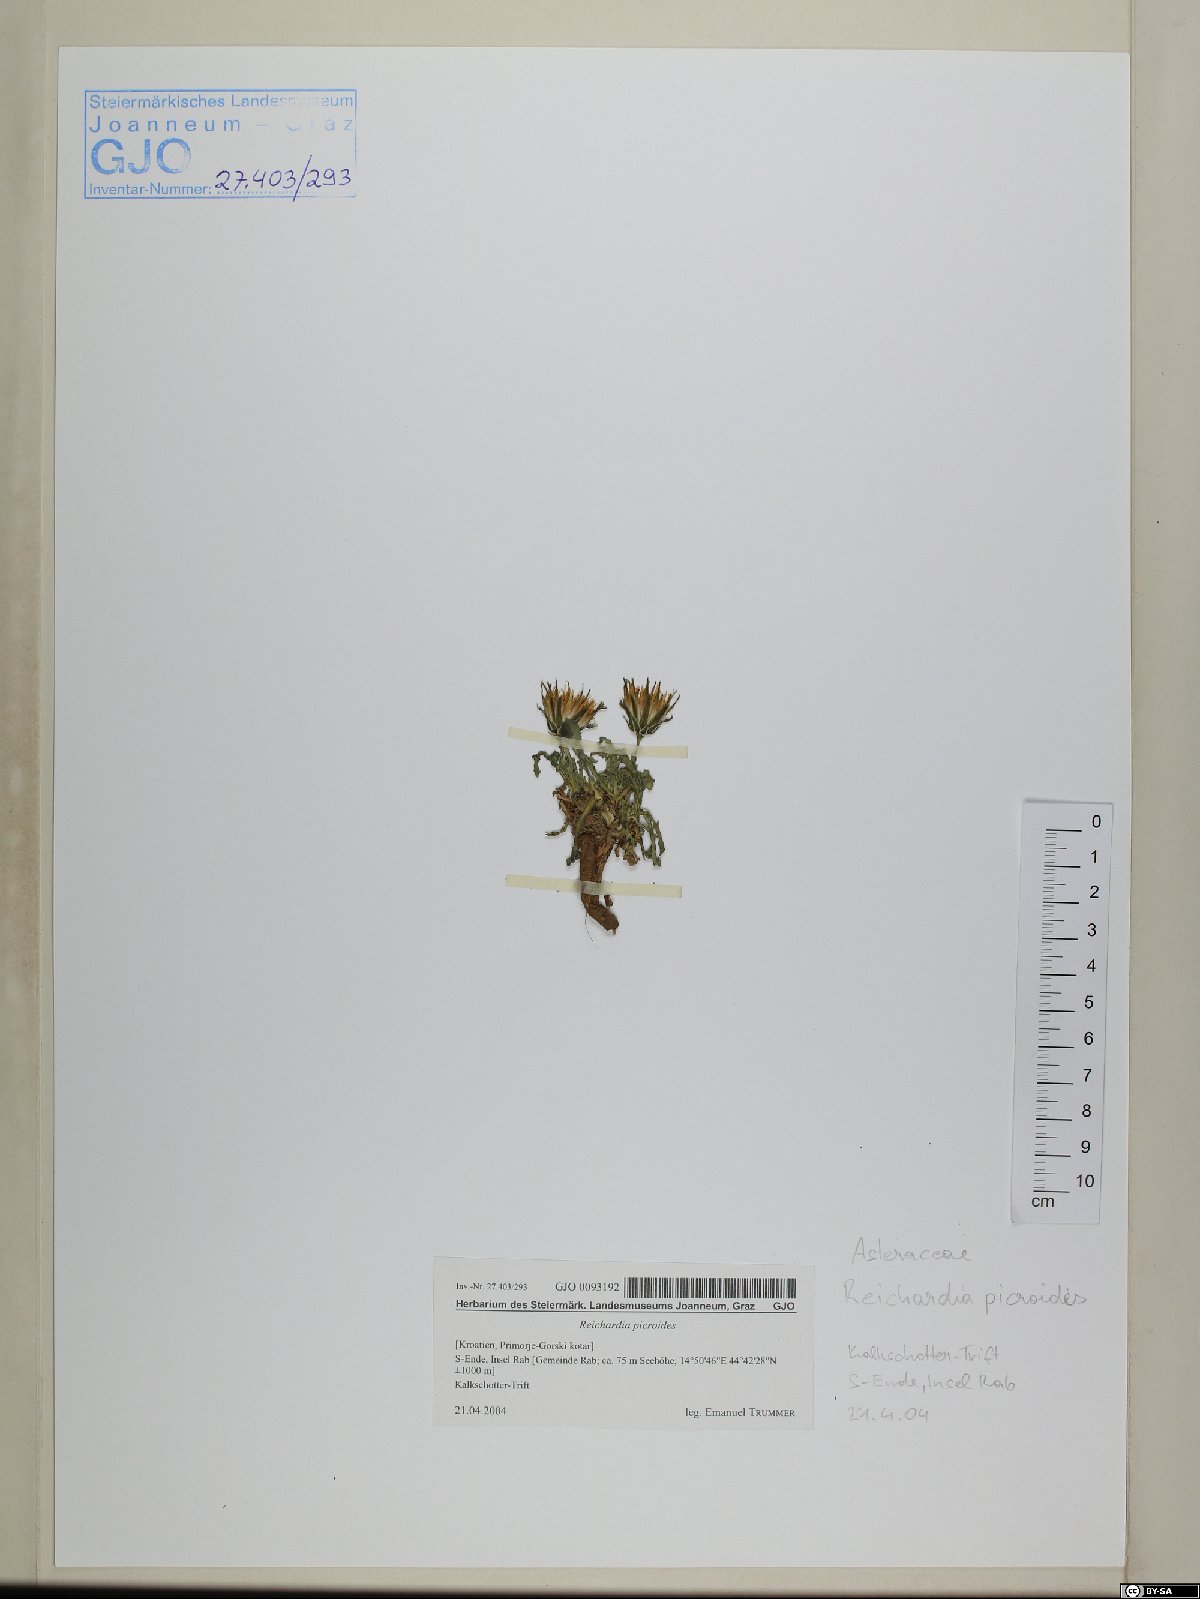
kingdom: Plantae
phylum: Tracheophyta
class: Magnoliopsida
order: Asterales
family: Asteraceae
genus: Reichardia
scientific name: Reichardia picroides
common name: Common brighteyes
